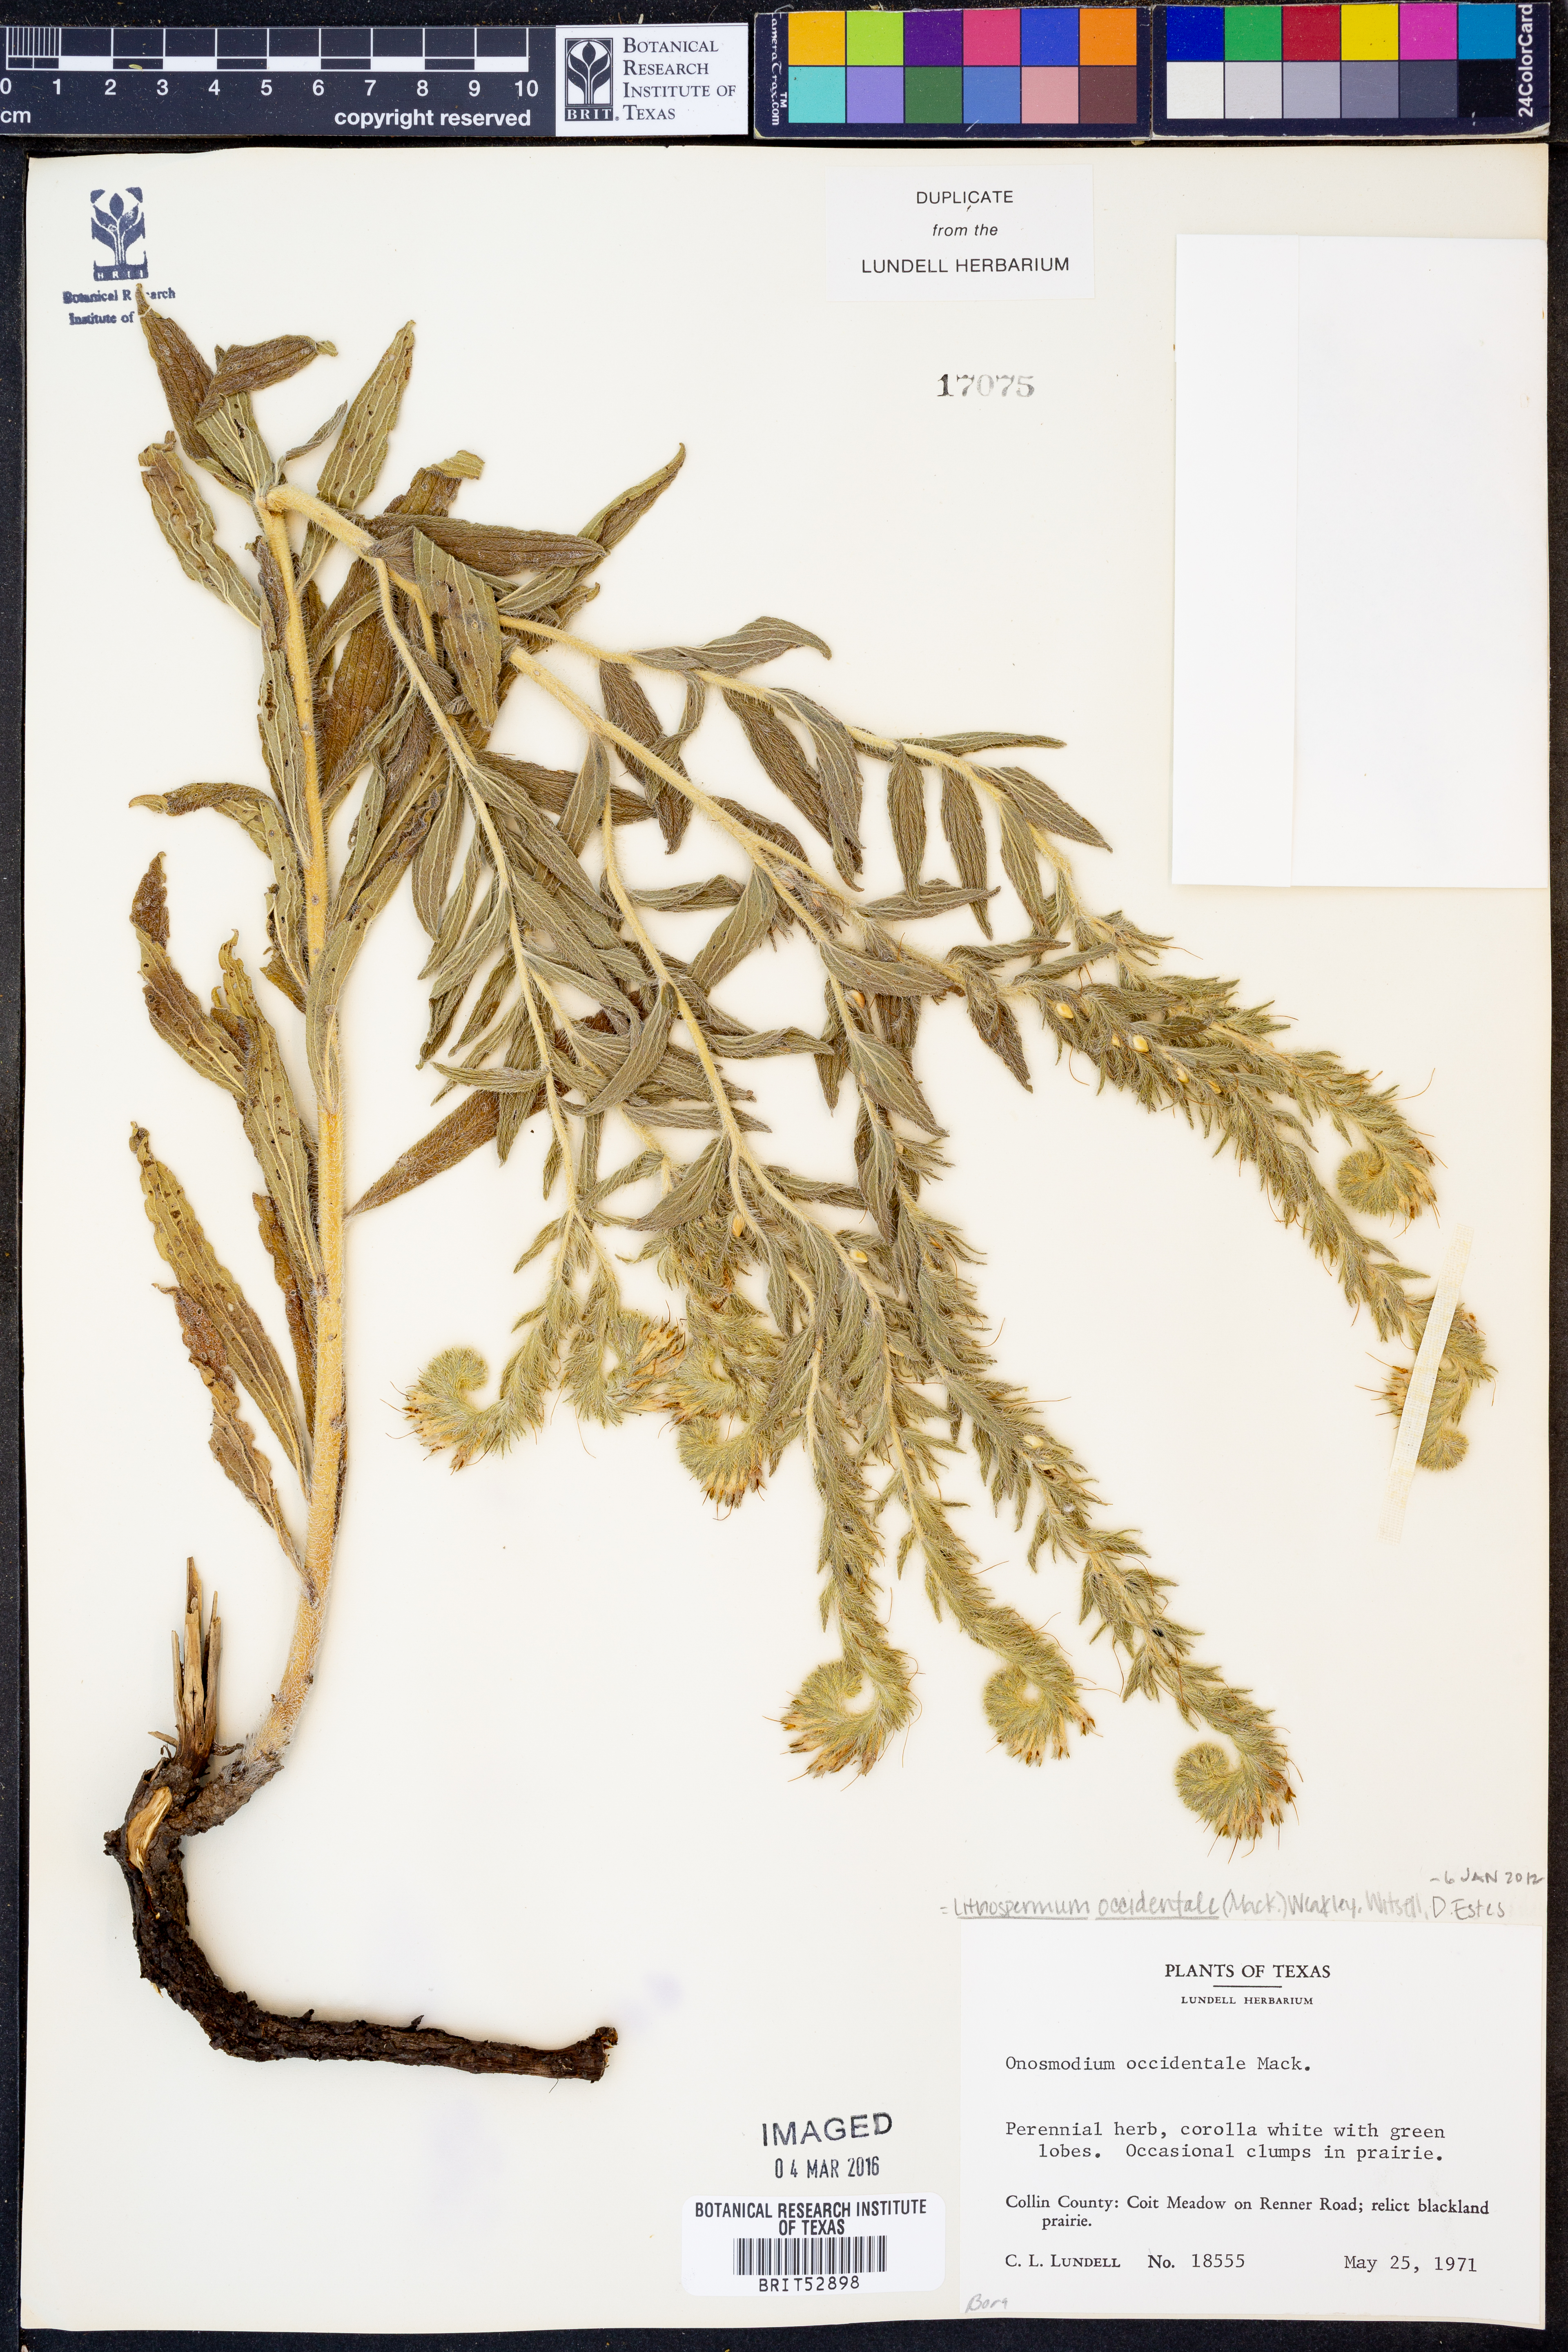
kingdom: Plantae
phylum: Tracheophyta
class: Magnoliopsida
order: Boraginales
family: Boraginaceae
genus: Lithospermum
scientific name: Lithospermum occidentale
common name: Western false gromwell
